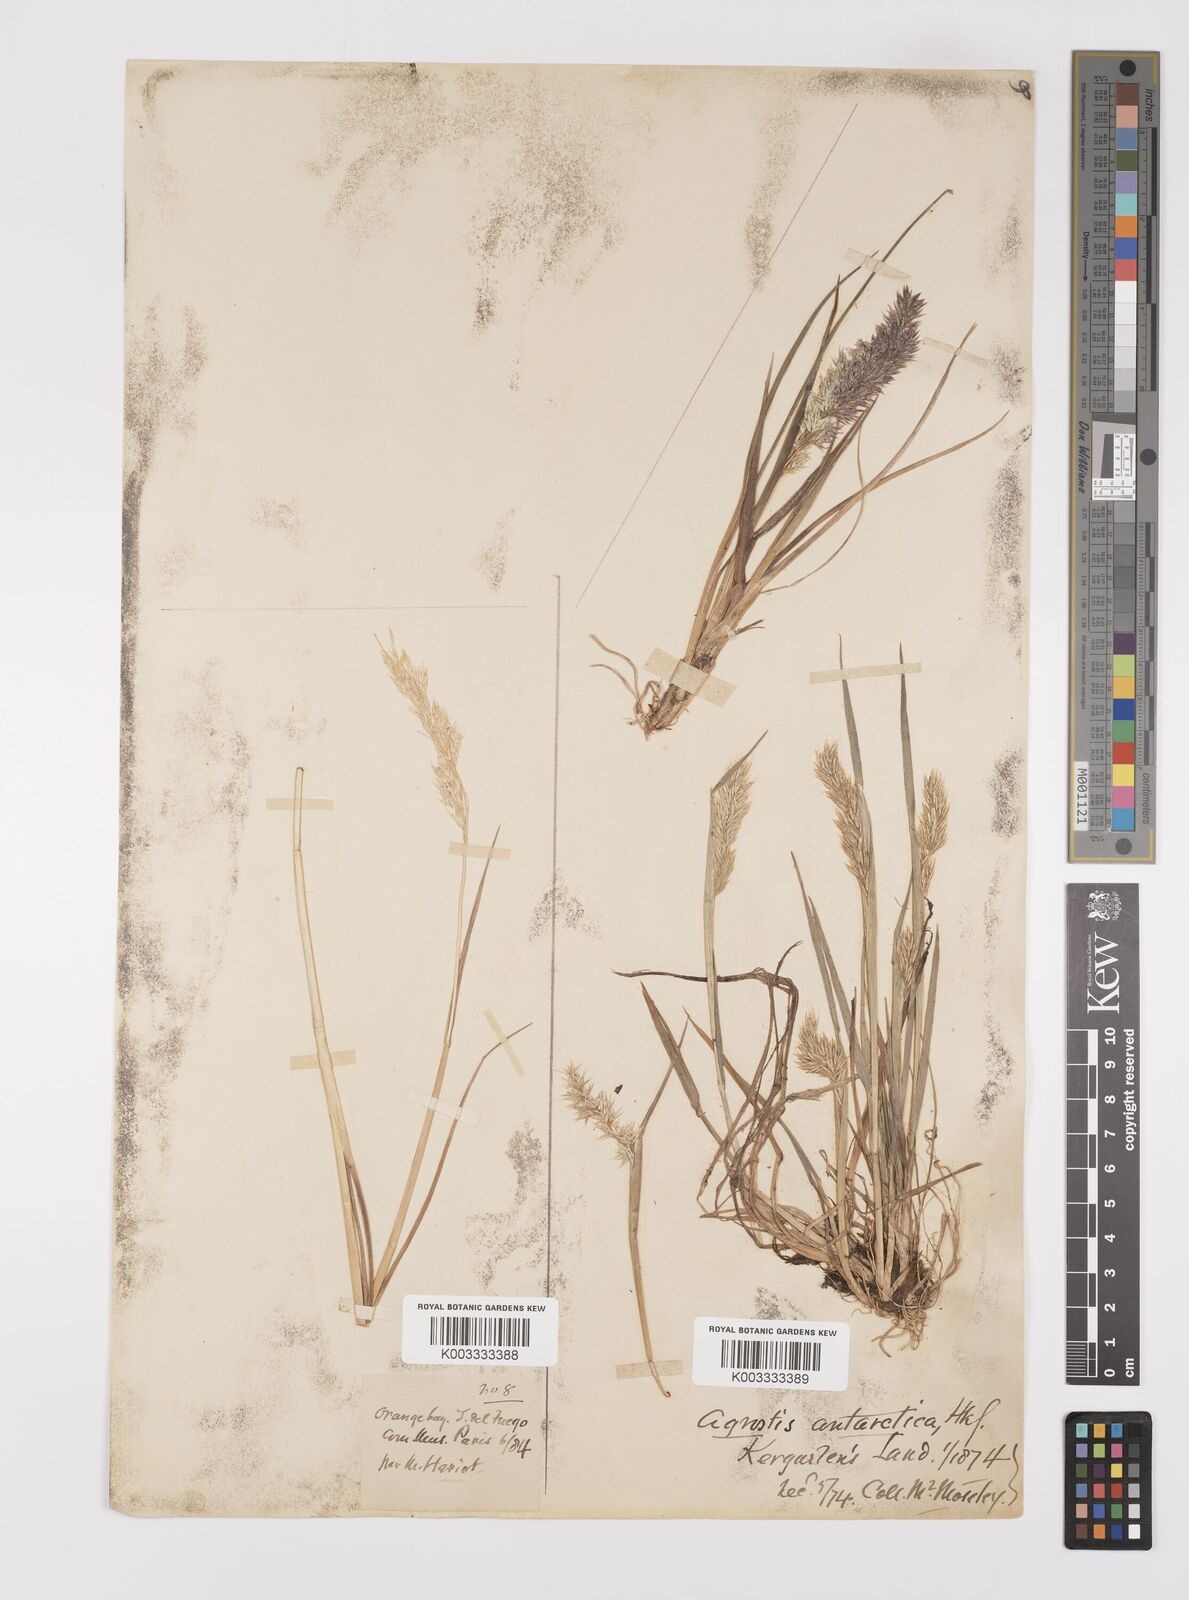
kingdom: Plantae
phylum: Tracheophyta
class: Liliopsida
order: Poales
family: Poaceae
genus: Polypogon
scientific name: Polypogon magellanicus
